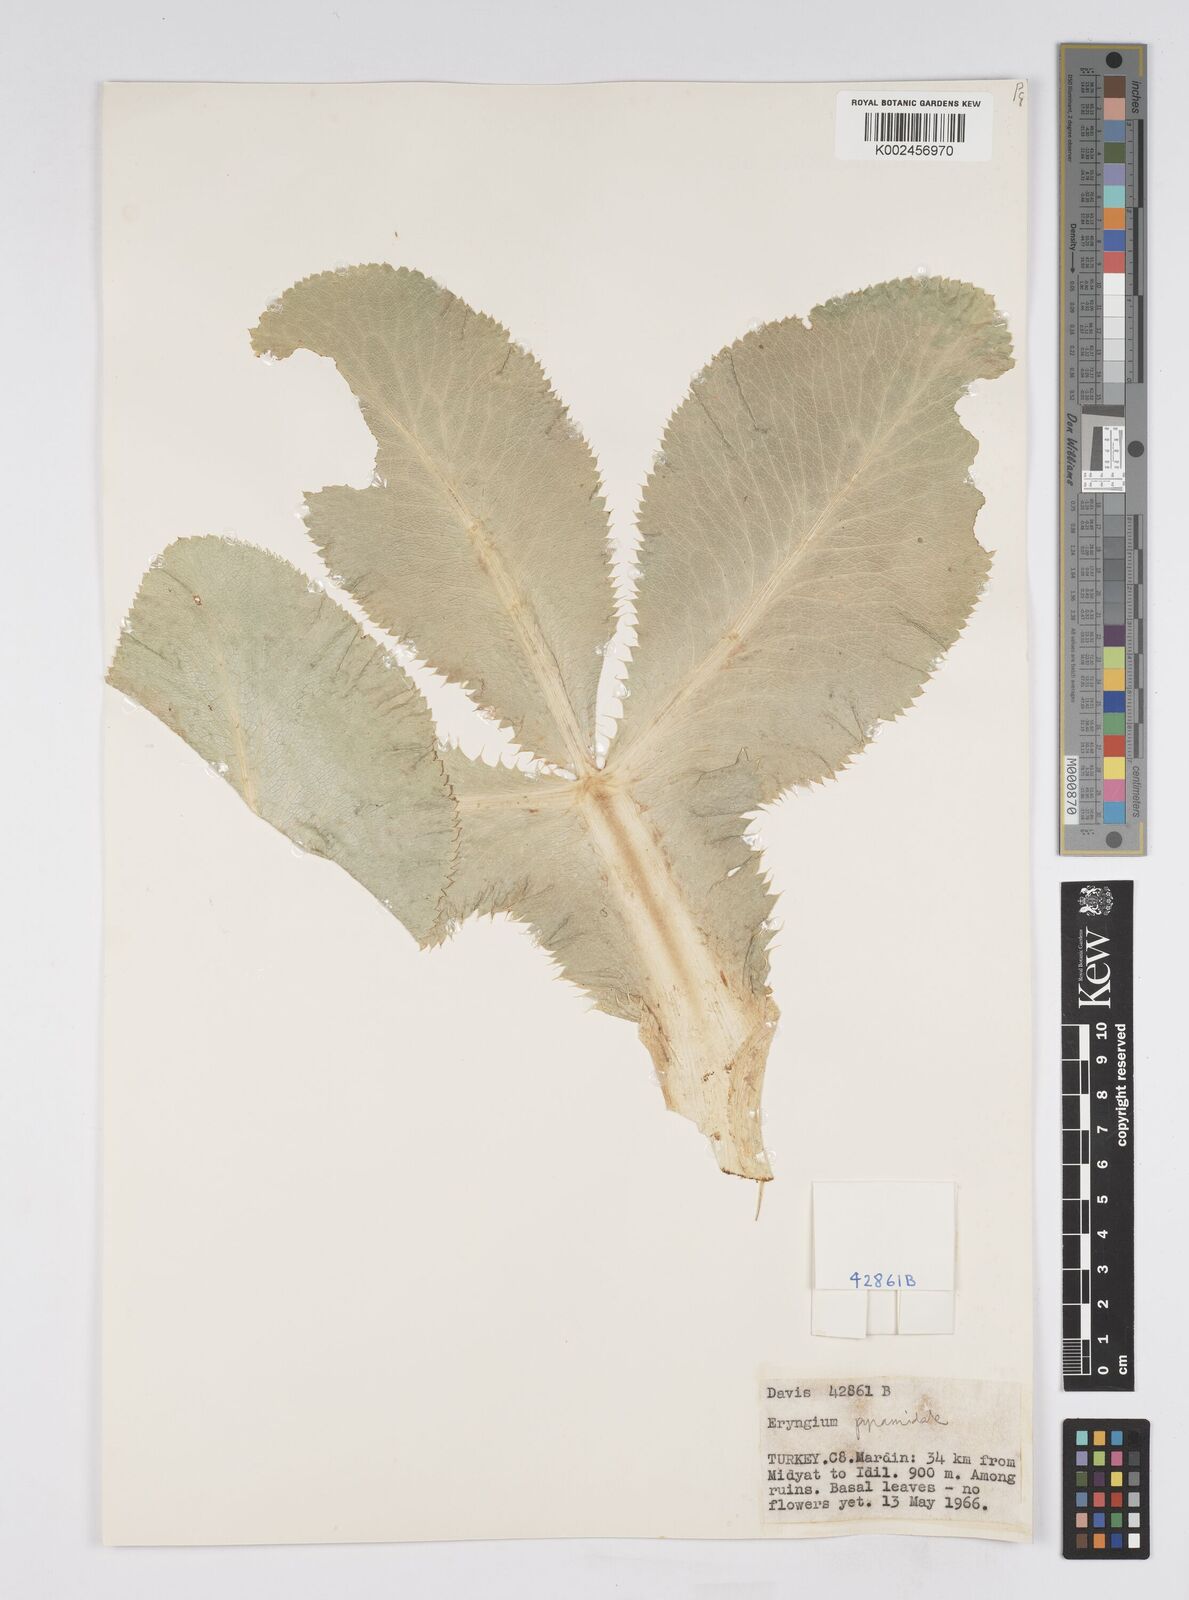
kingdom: Plantae
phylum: Tracheophyta
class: Magnoliopsida
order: Apiales
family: Apiaceae
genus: Eryngium
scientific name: Eryngium pyramidale
